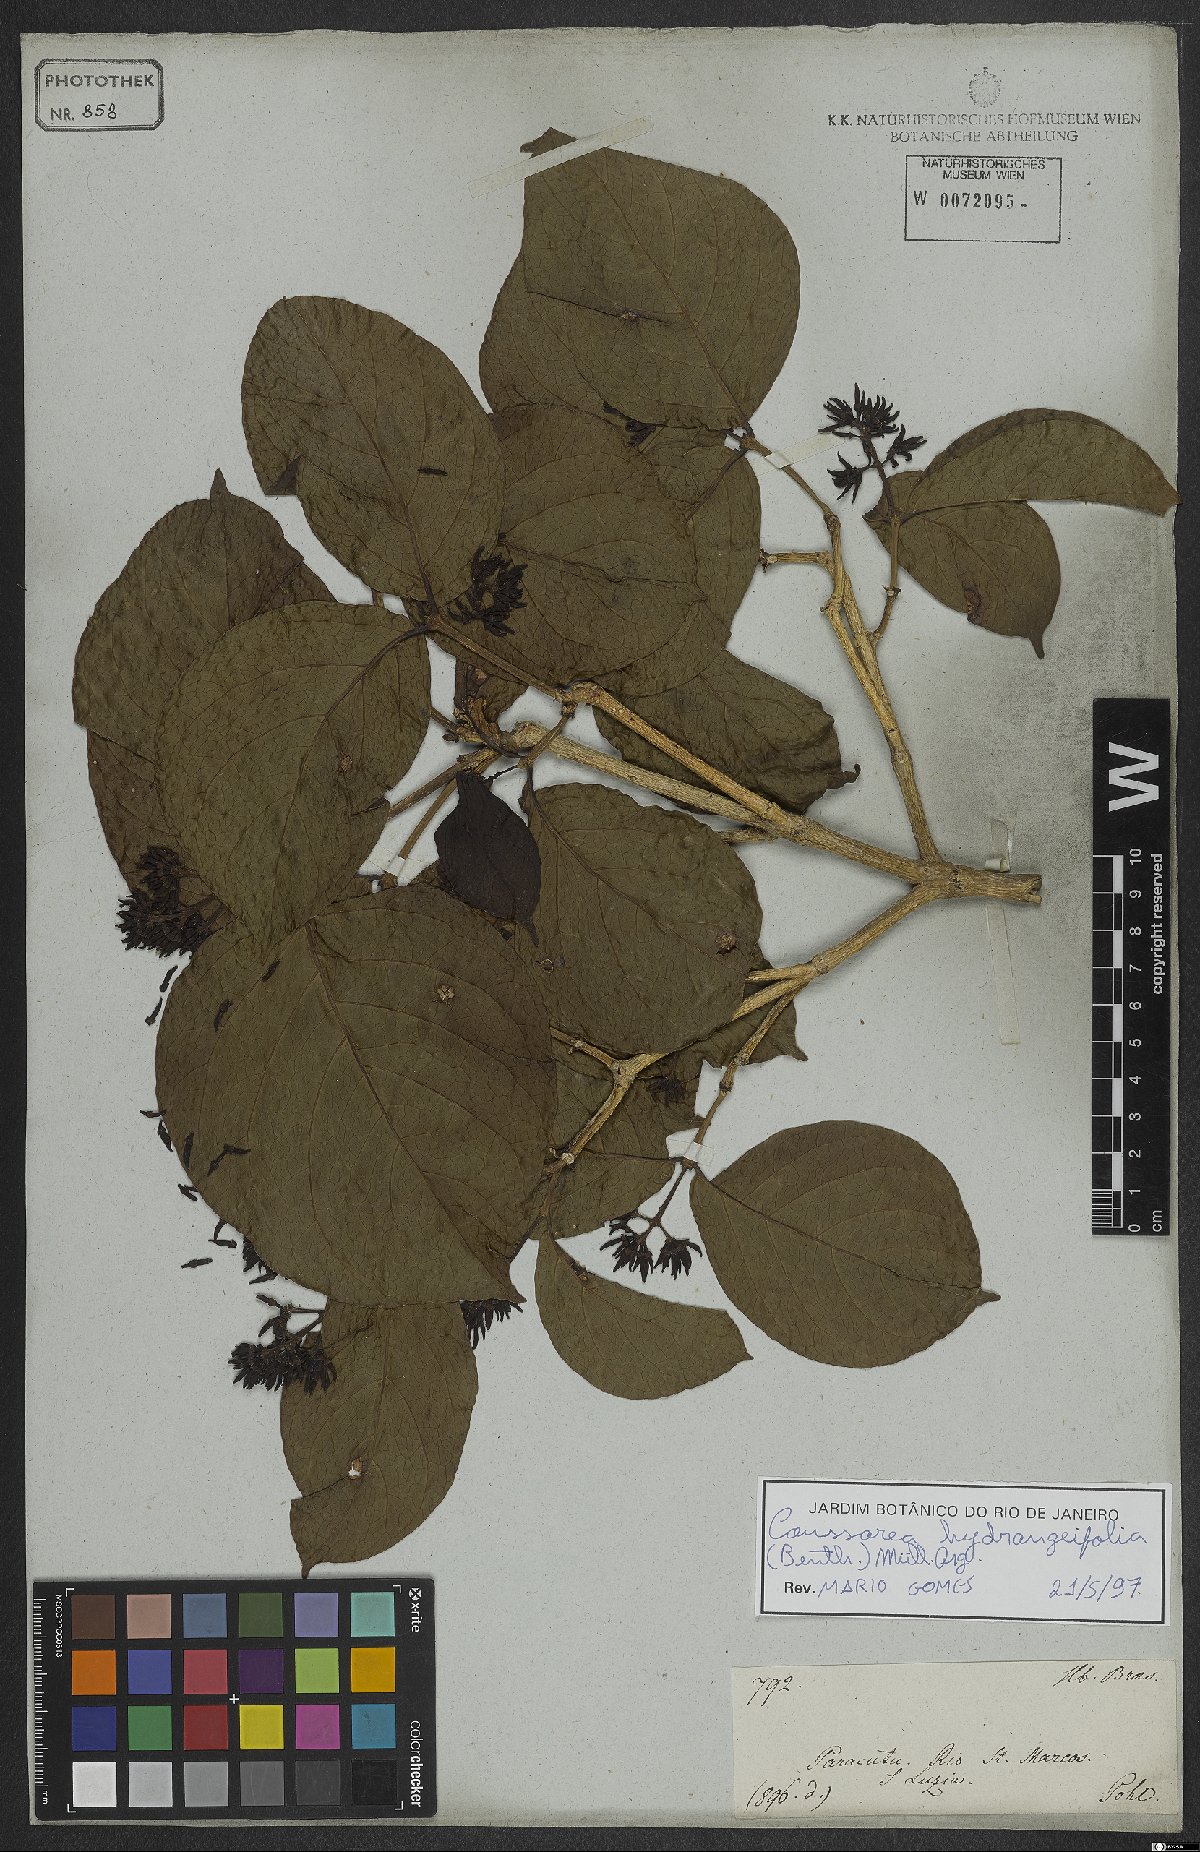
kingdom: Plantae
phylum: Tracheophyta
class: Magnoliopsida
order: Gentianales
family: Rubiaceae
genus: Coussarea
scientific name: Coussarea hydrangeifolia
